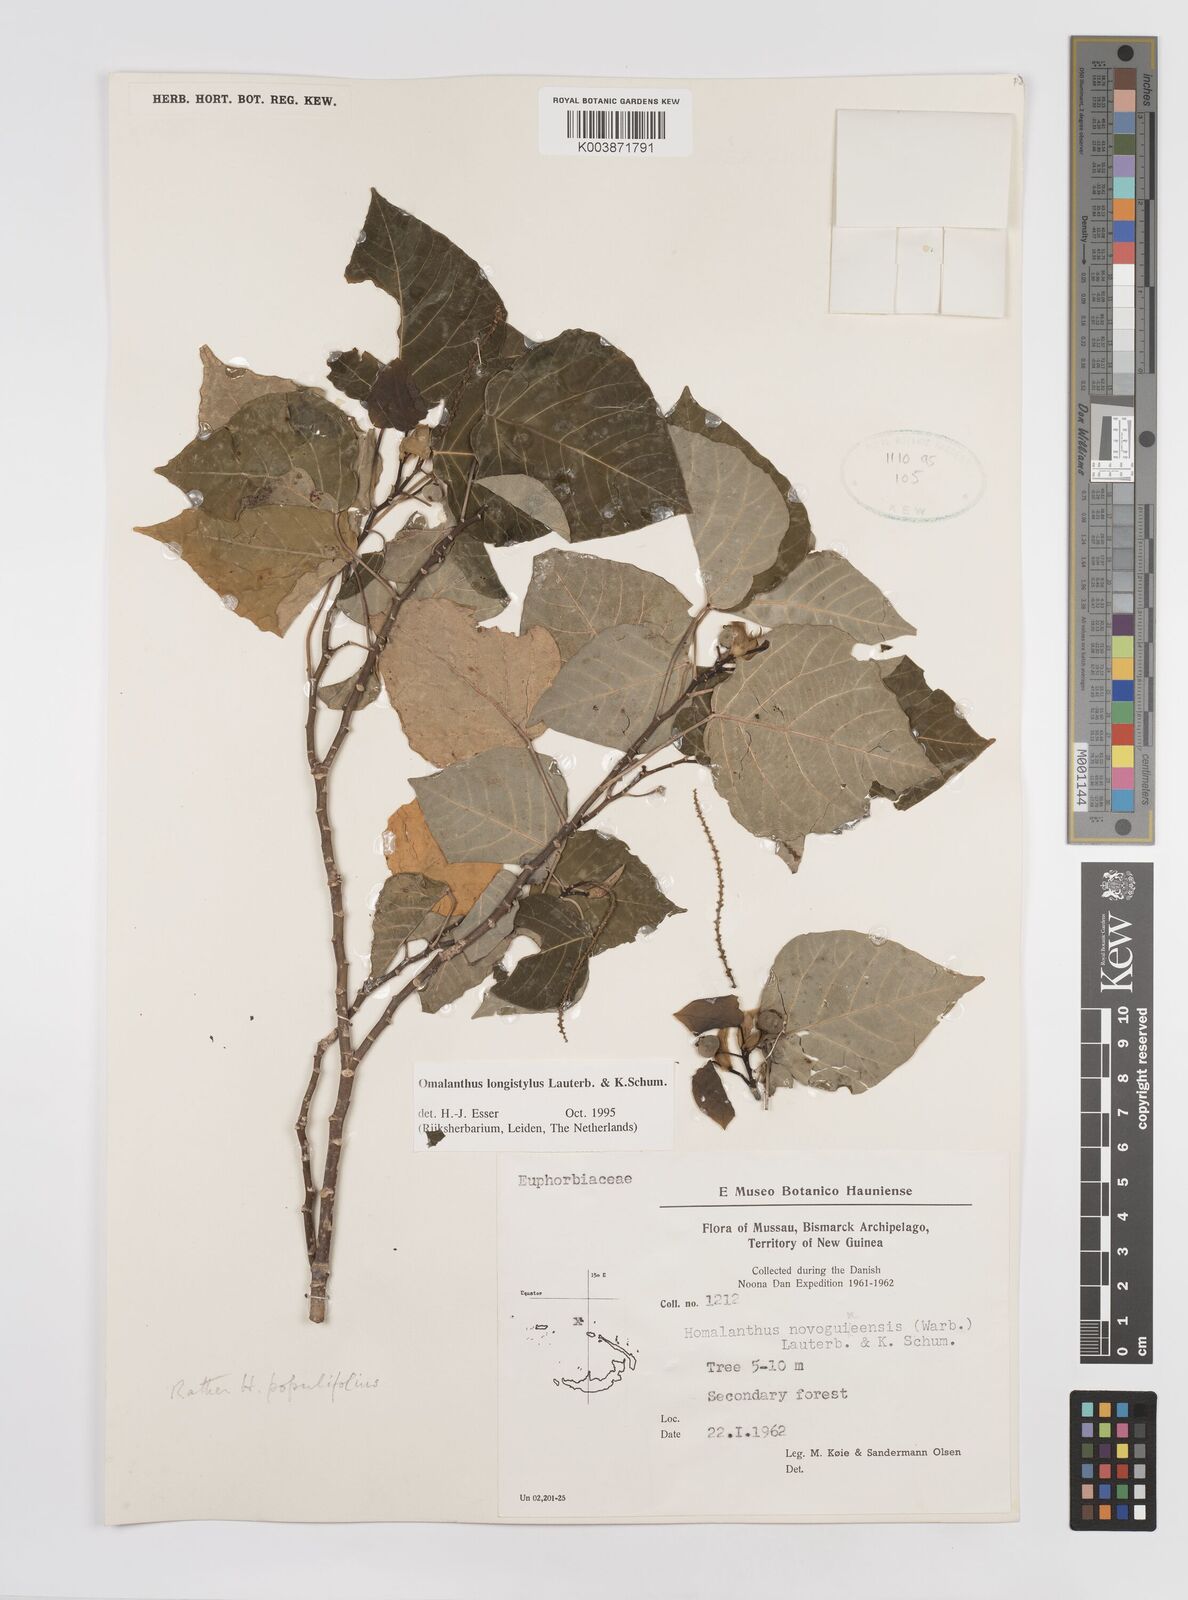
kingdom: Plantae
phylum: Tracheophyta
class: Magnoliopsida
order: Malpighiales
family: Euphorbiaceae
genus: Homalanthus
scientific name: Homalanthus longistylus
